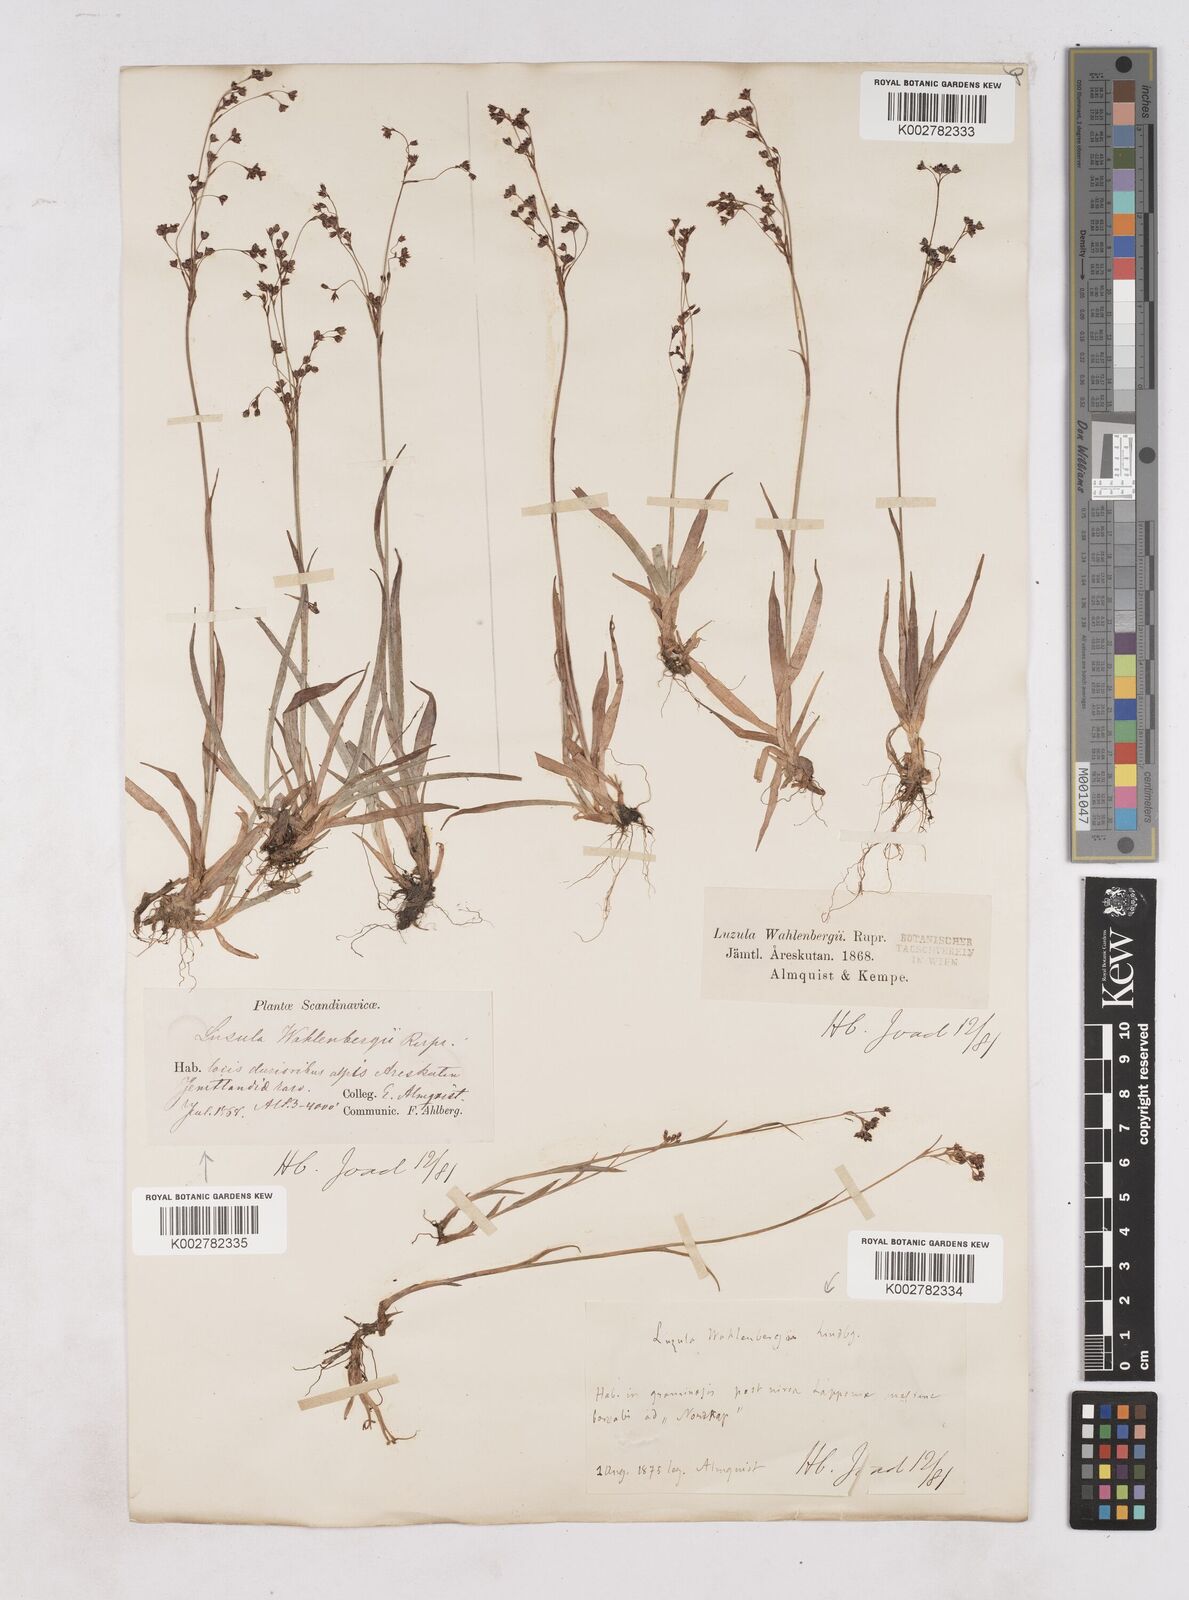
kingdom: Plantae
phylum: Tracheophyta
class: Liliopsida
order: Poales
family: Juncaceae
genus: Luzula
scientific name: Luzula alpinopilosa
